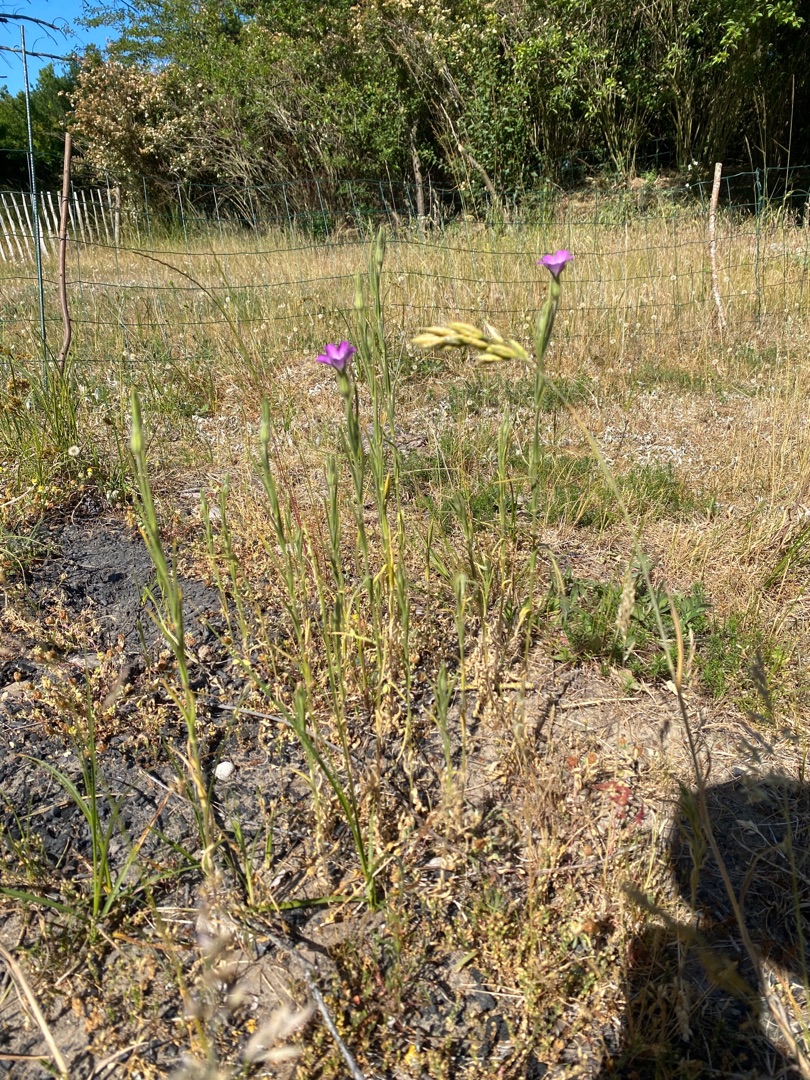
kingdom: Plantae
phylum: Tracheophyta
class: Magnoliopsida
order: Caryophyllales
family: Caryophyllaceae
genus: Agrostemma
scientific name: Agrostemma githago
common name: Klinte
